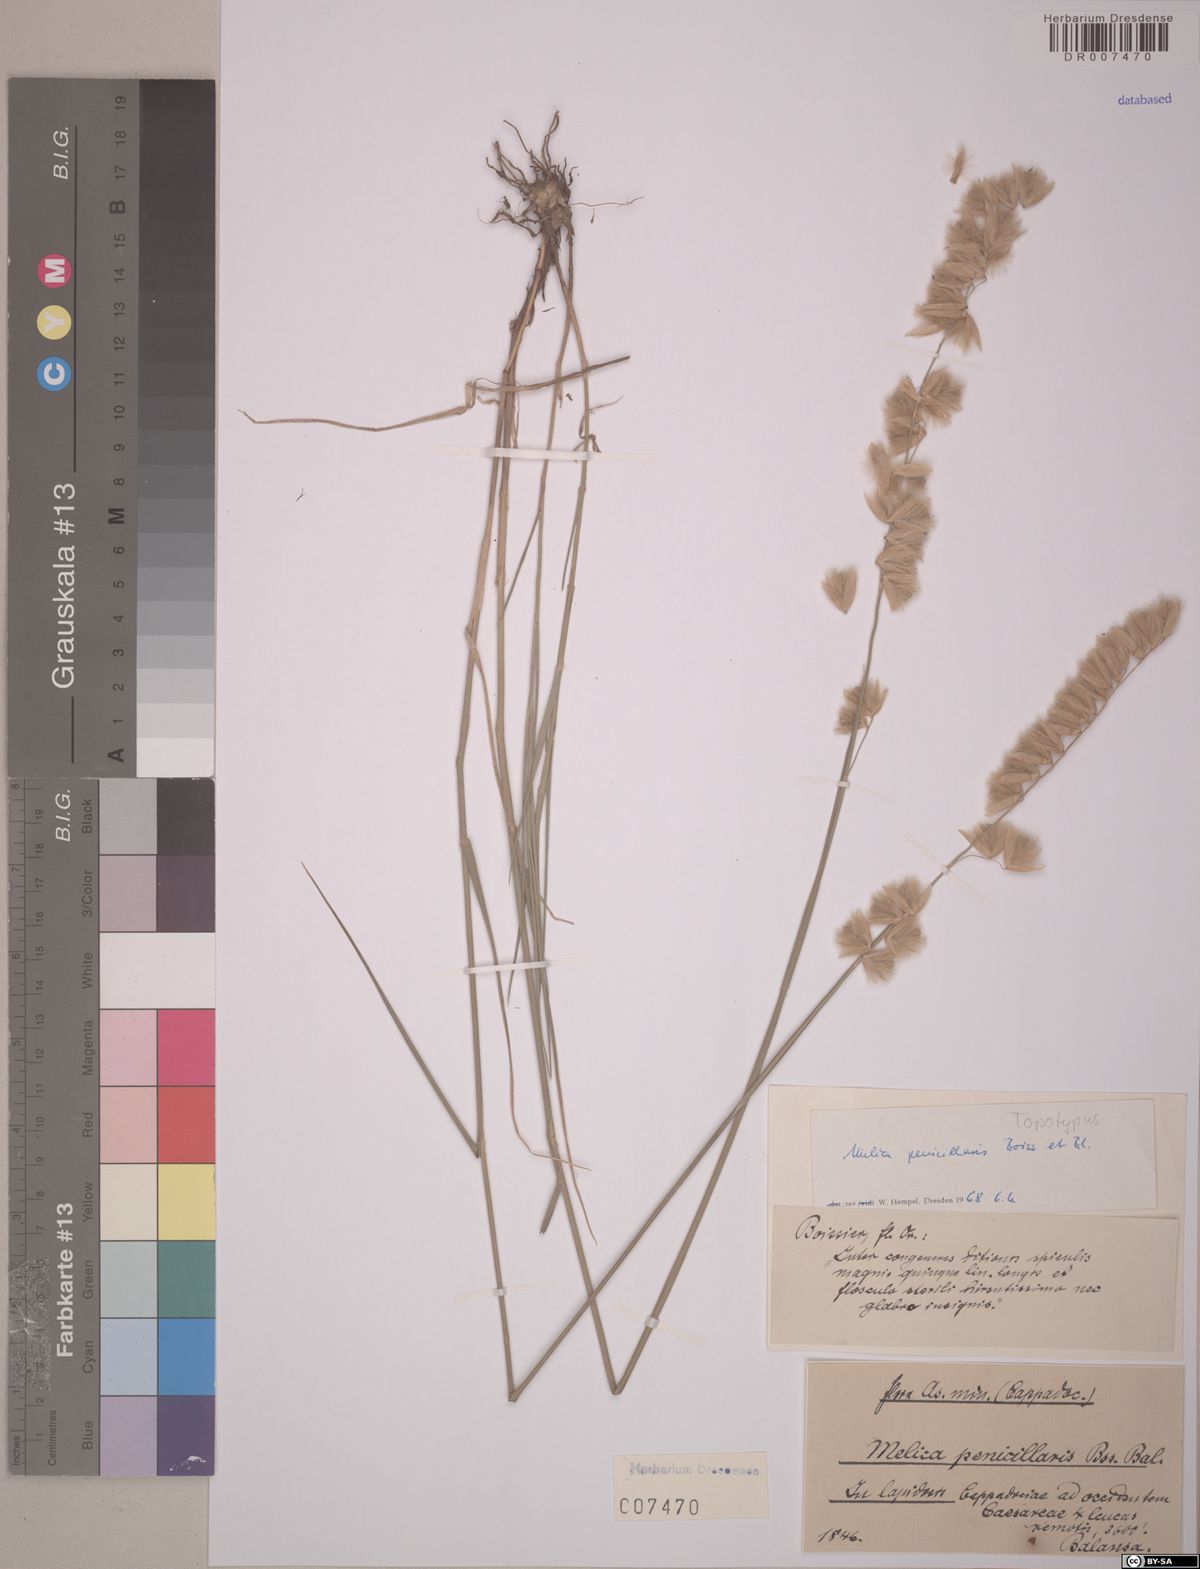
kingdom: Plantae
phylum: Tracheophyta
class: Liliopsida
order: Poales
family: Poaceae
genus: Melica
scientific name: Melica penicillaris
